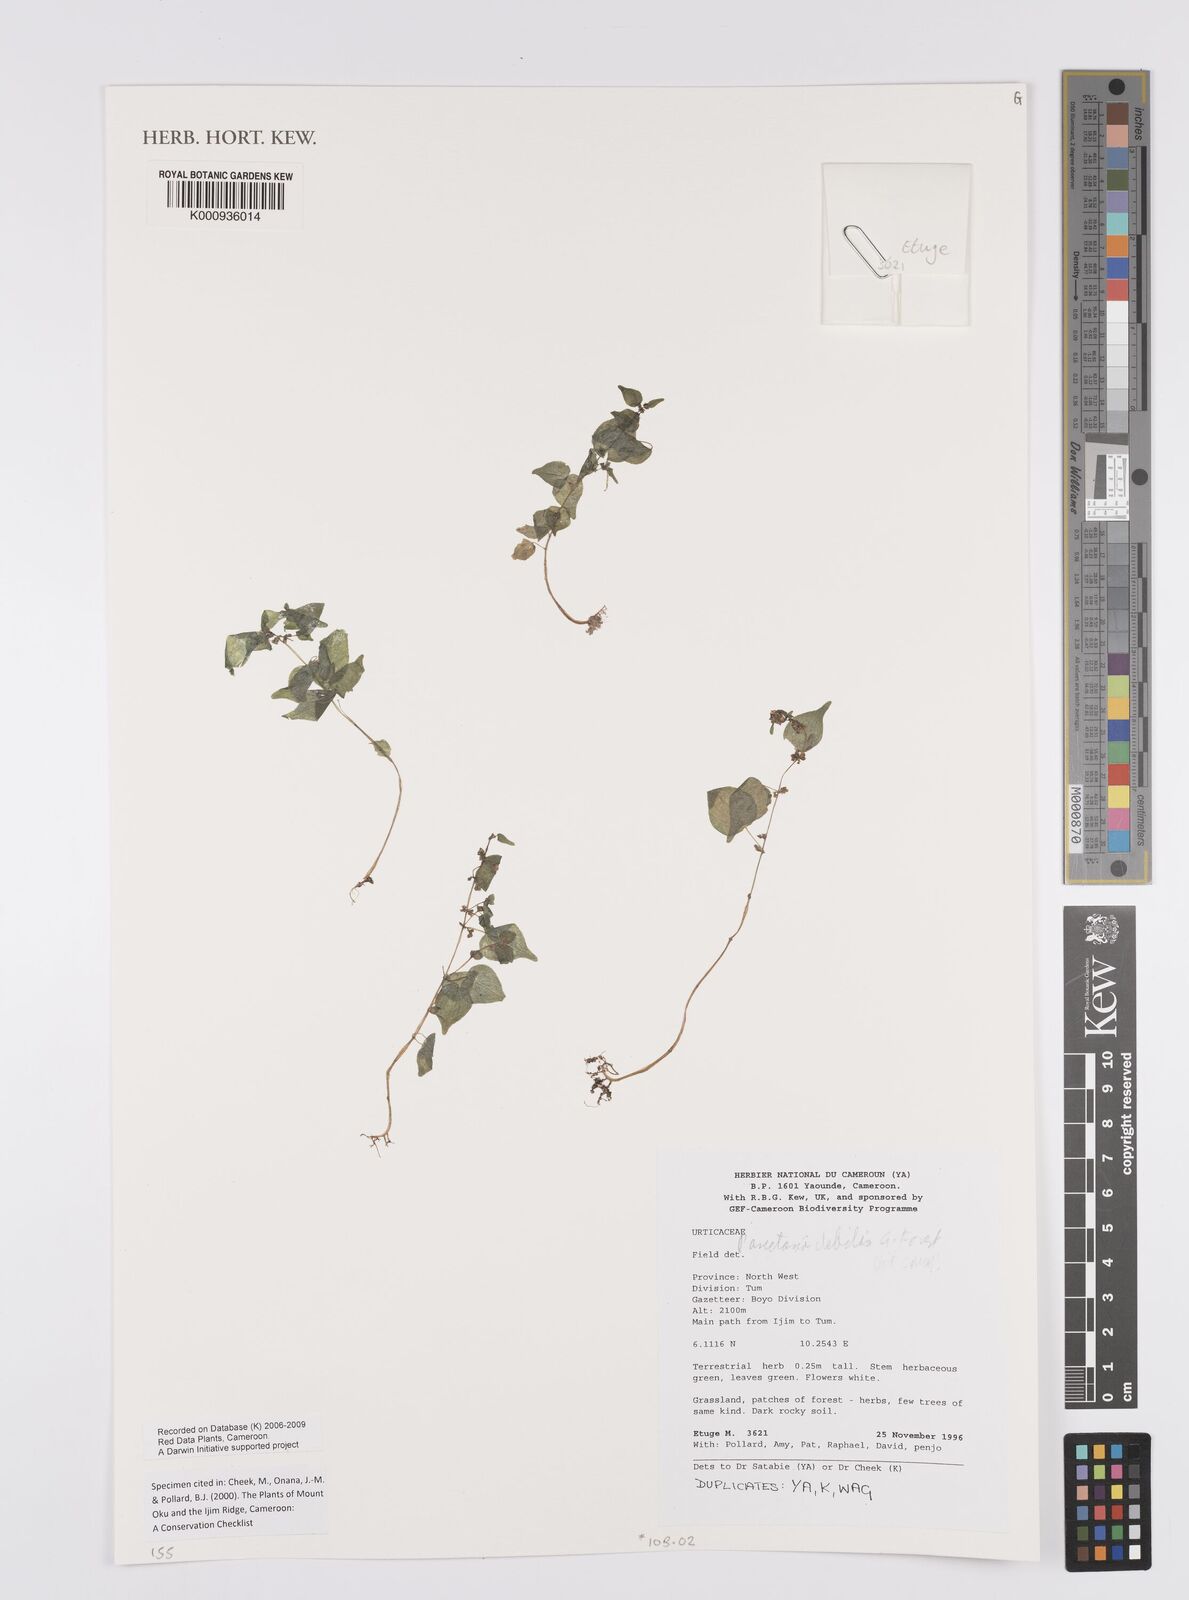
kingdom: Plantae
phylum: Tracheophyta
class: Magnoliopsida
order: Rosales
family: Urticaceae
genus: Parietaria
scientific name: Parietaria debilis
